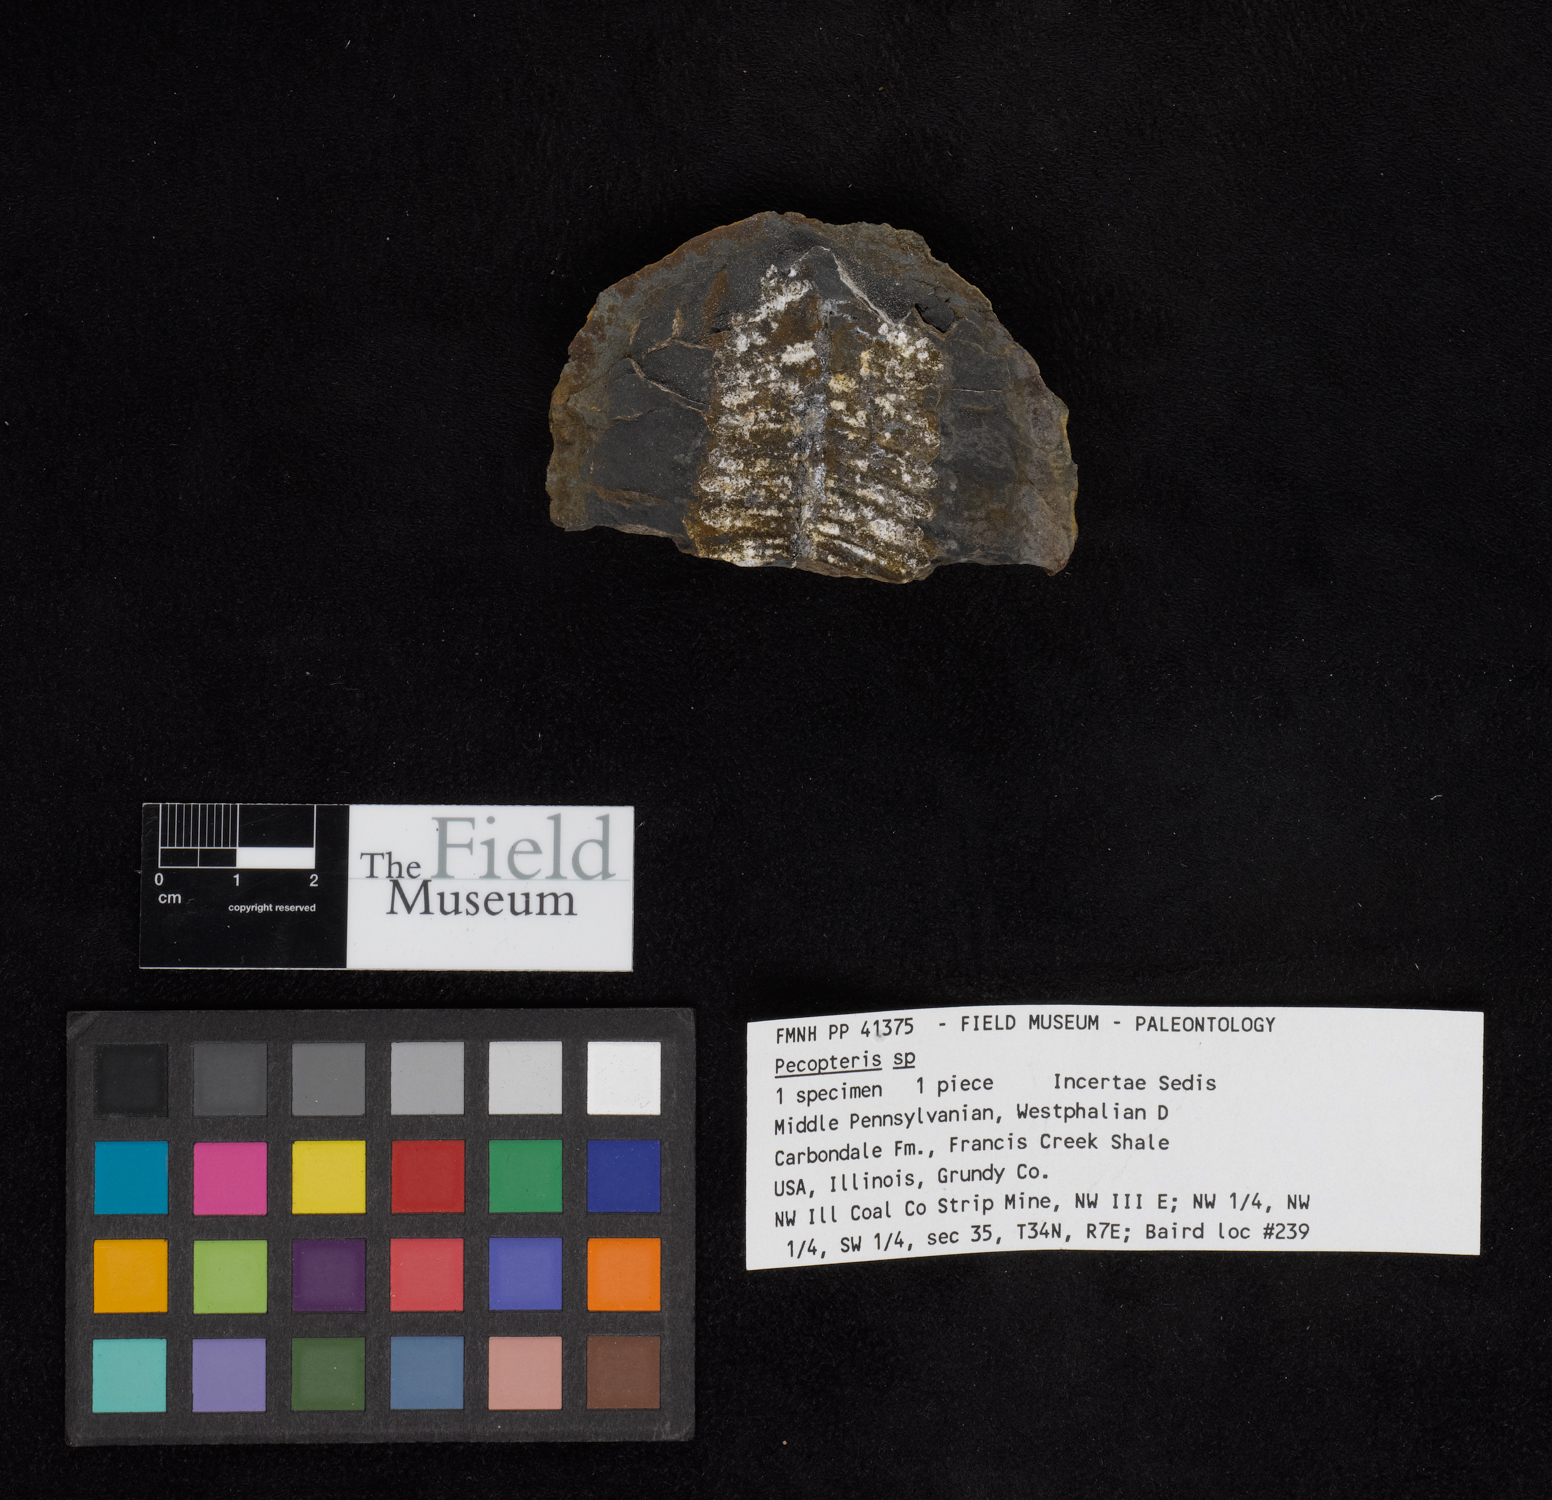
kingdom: Plantae
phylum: Tracheophyta
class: Polypodiopsida
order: Marattiales
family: Asterothecaceae
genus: Pecopteris
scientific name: Pecopteris
